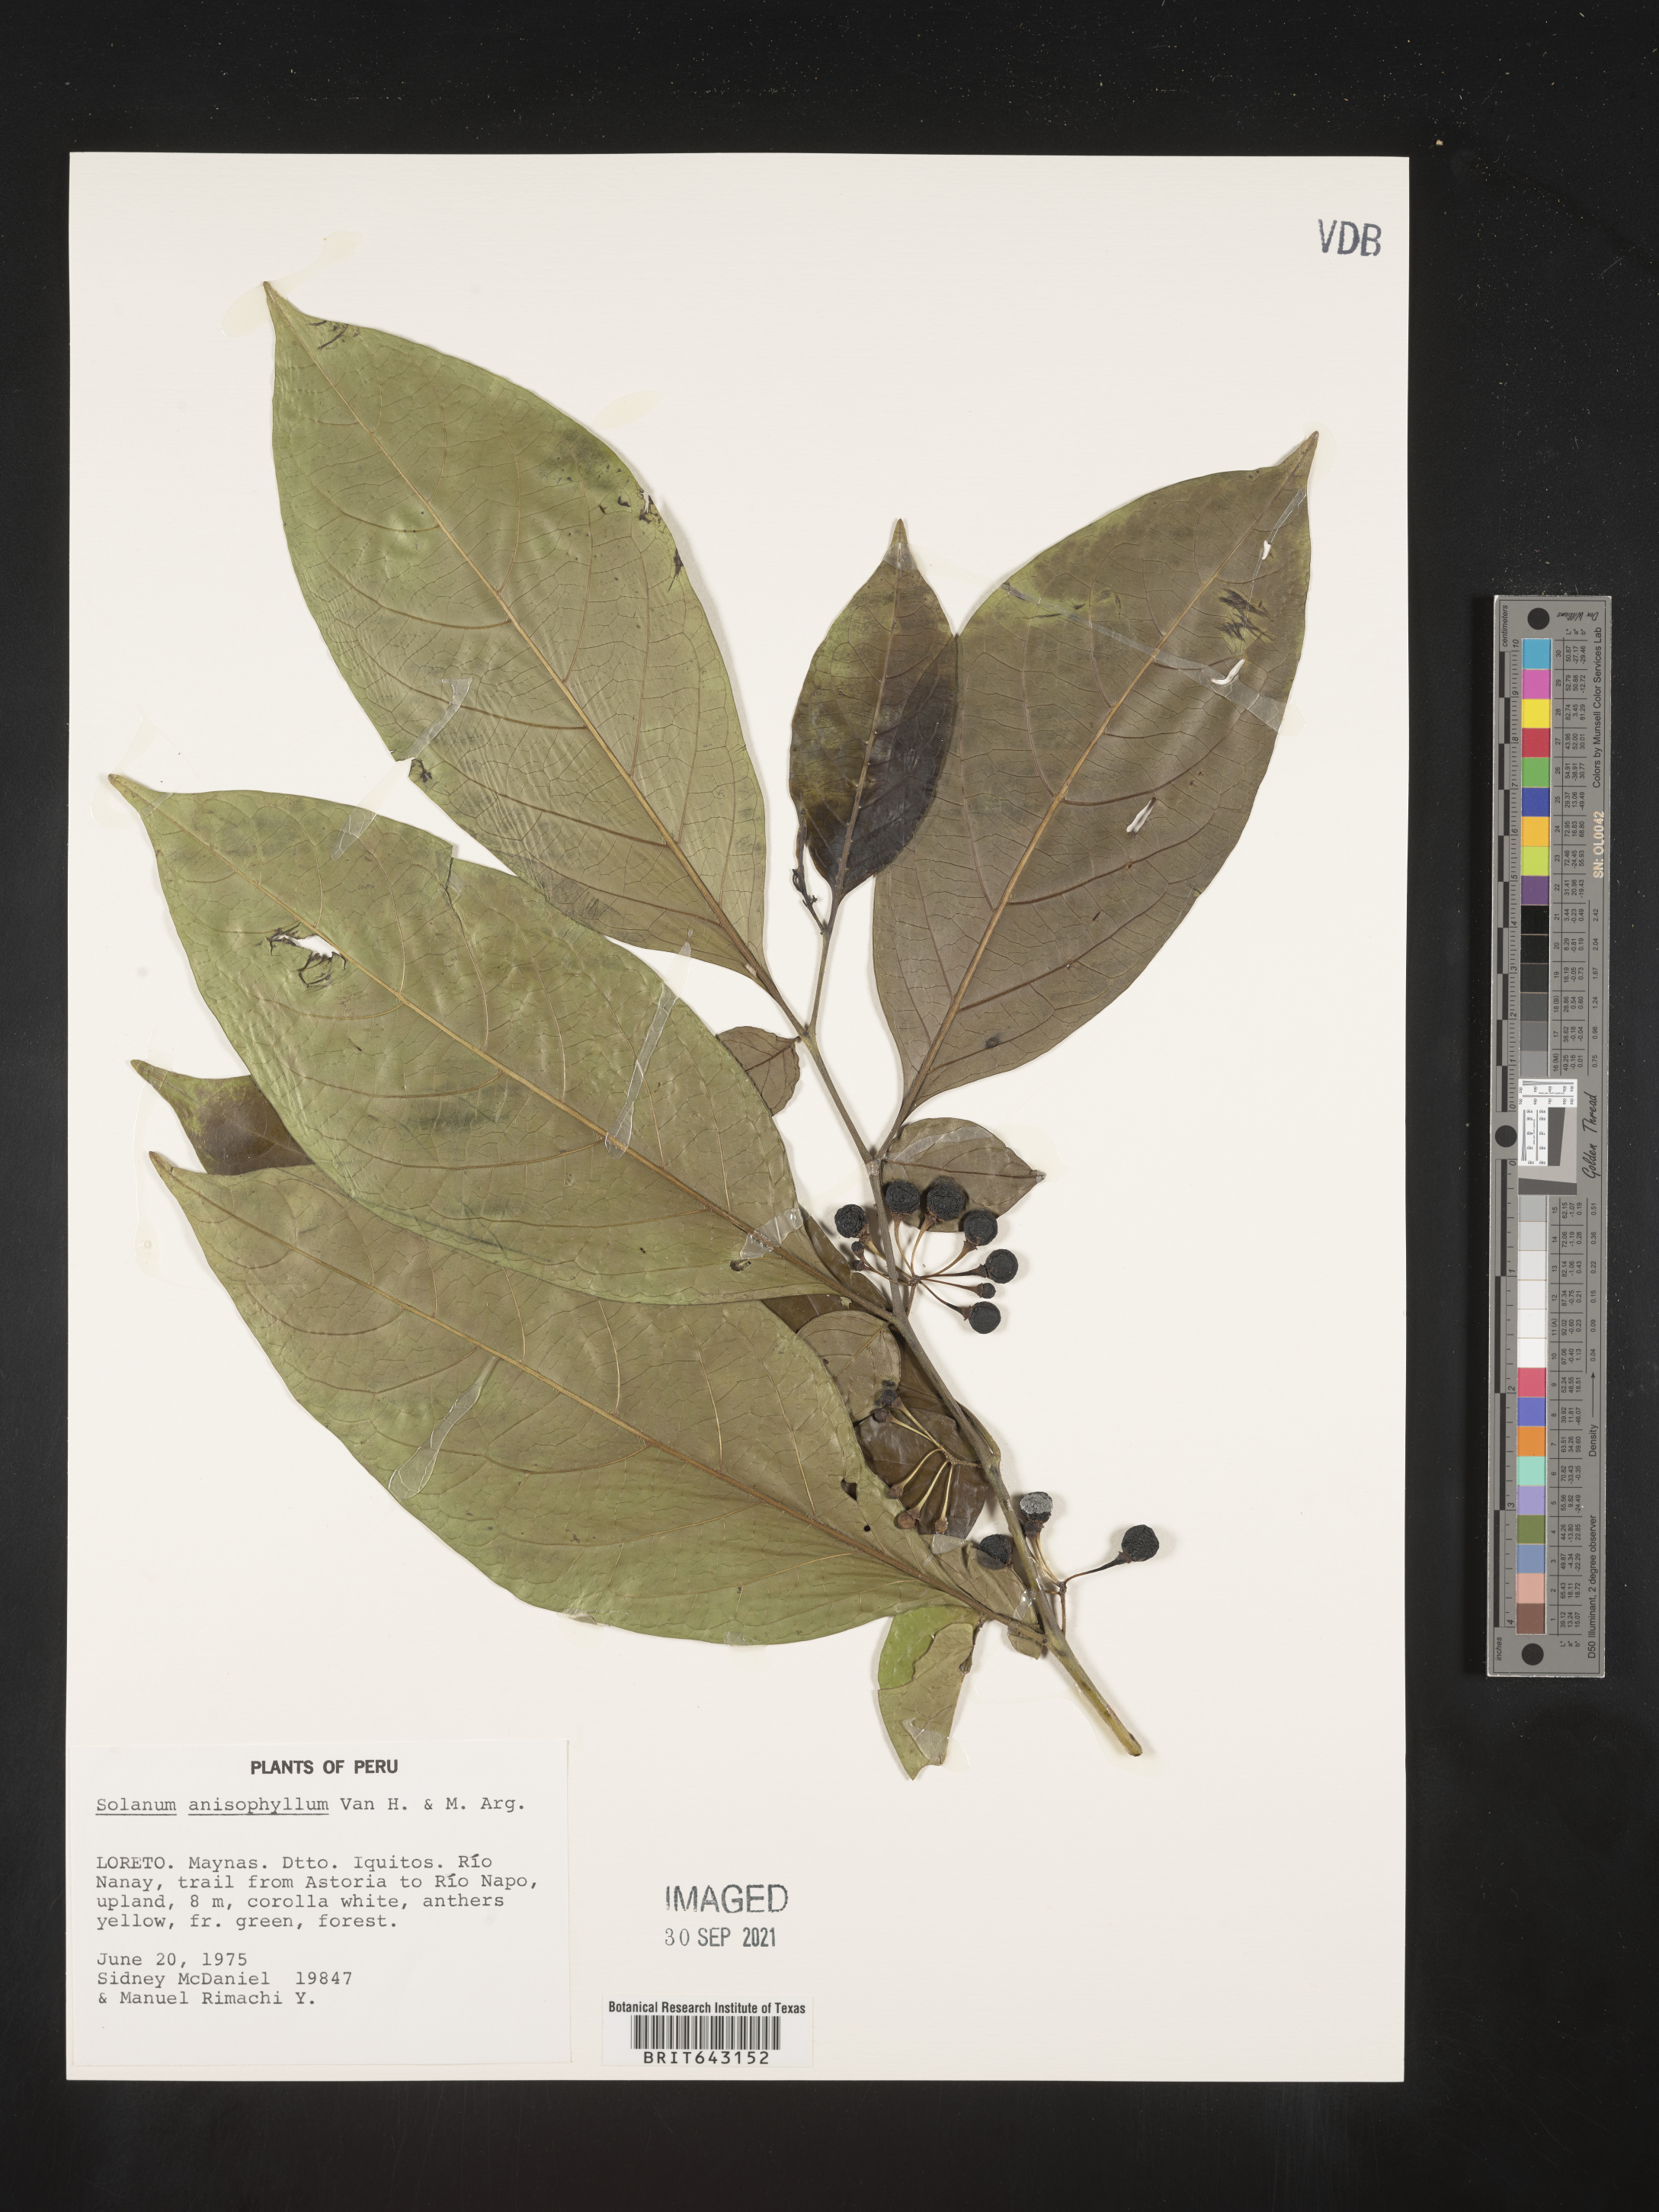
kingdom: Plantae
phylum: Tracheophyta
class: Magnoliopsida
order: Solanales
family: Solanaceae
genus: Solanum
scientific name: Solanum
